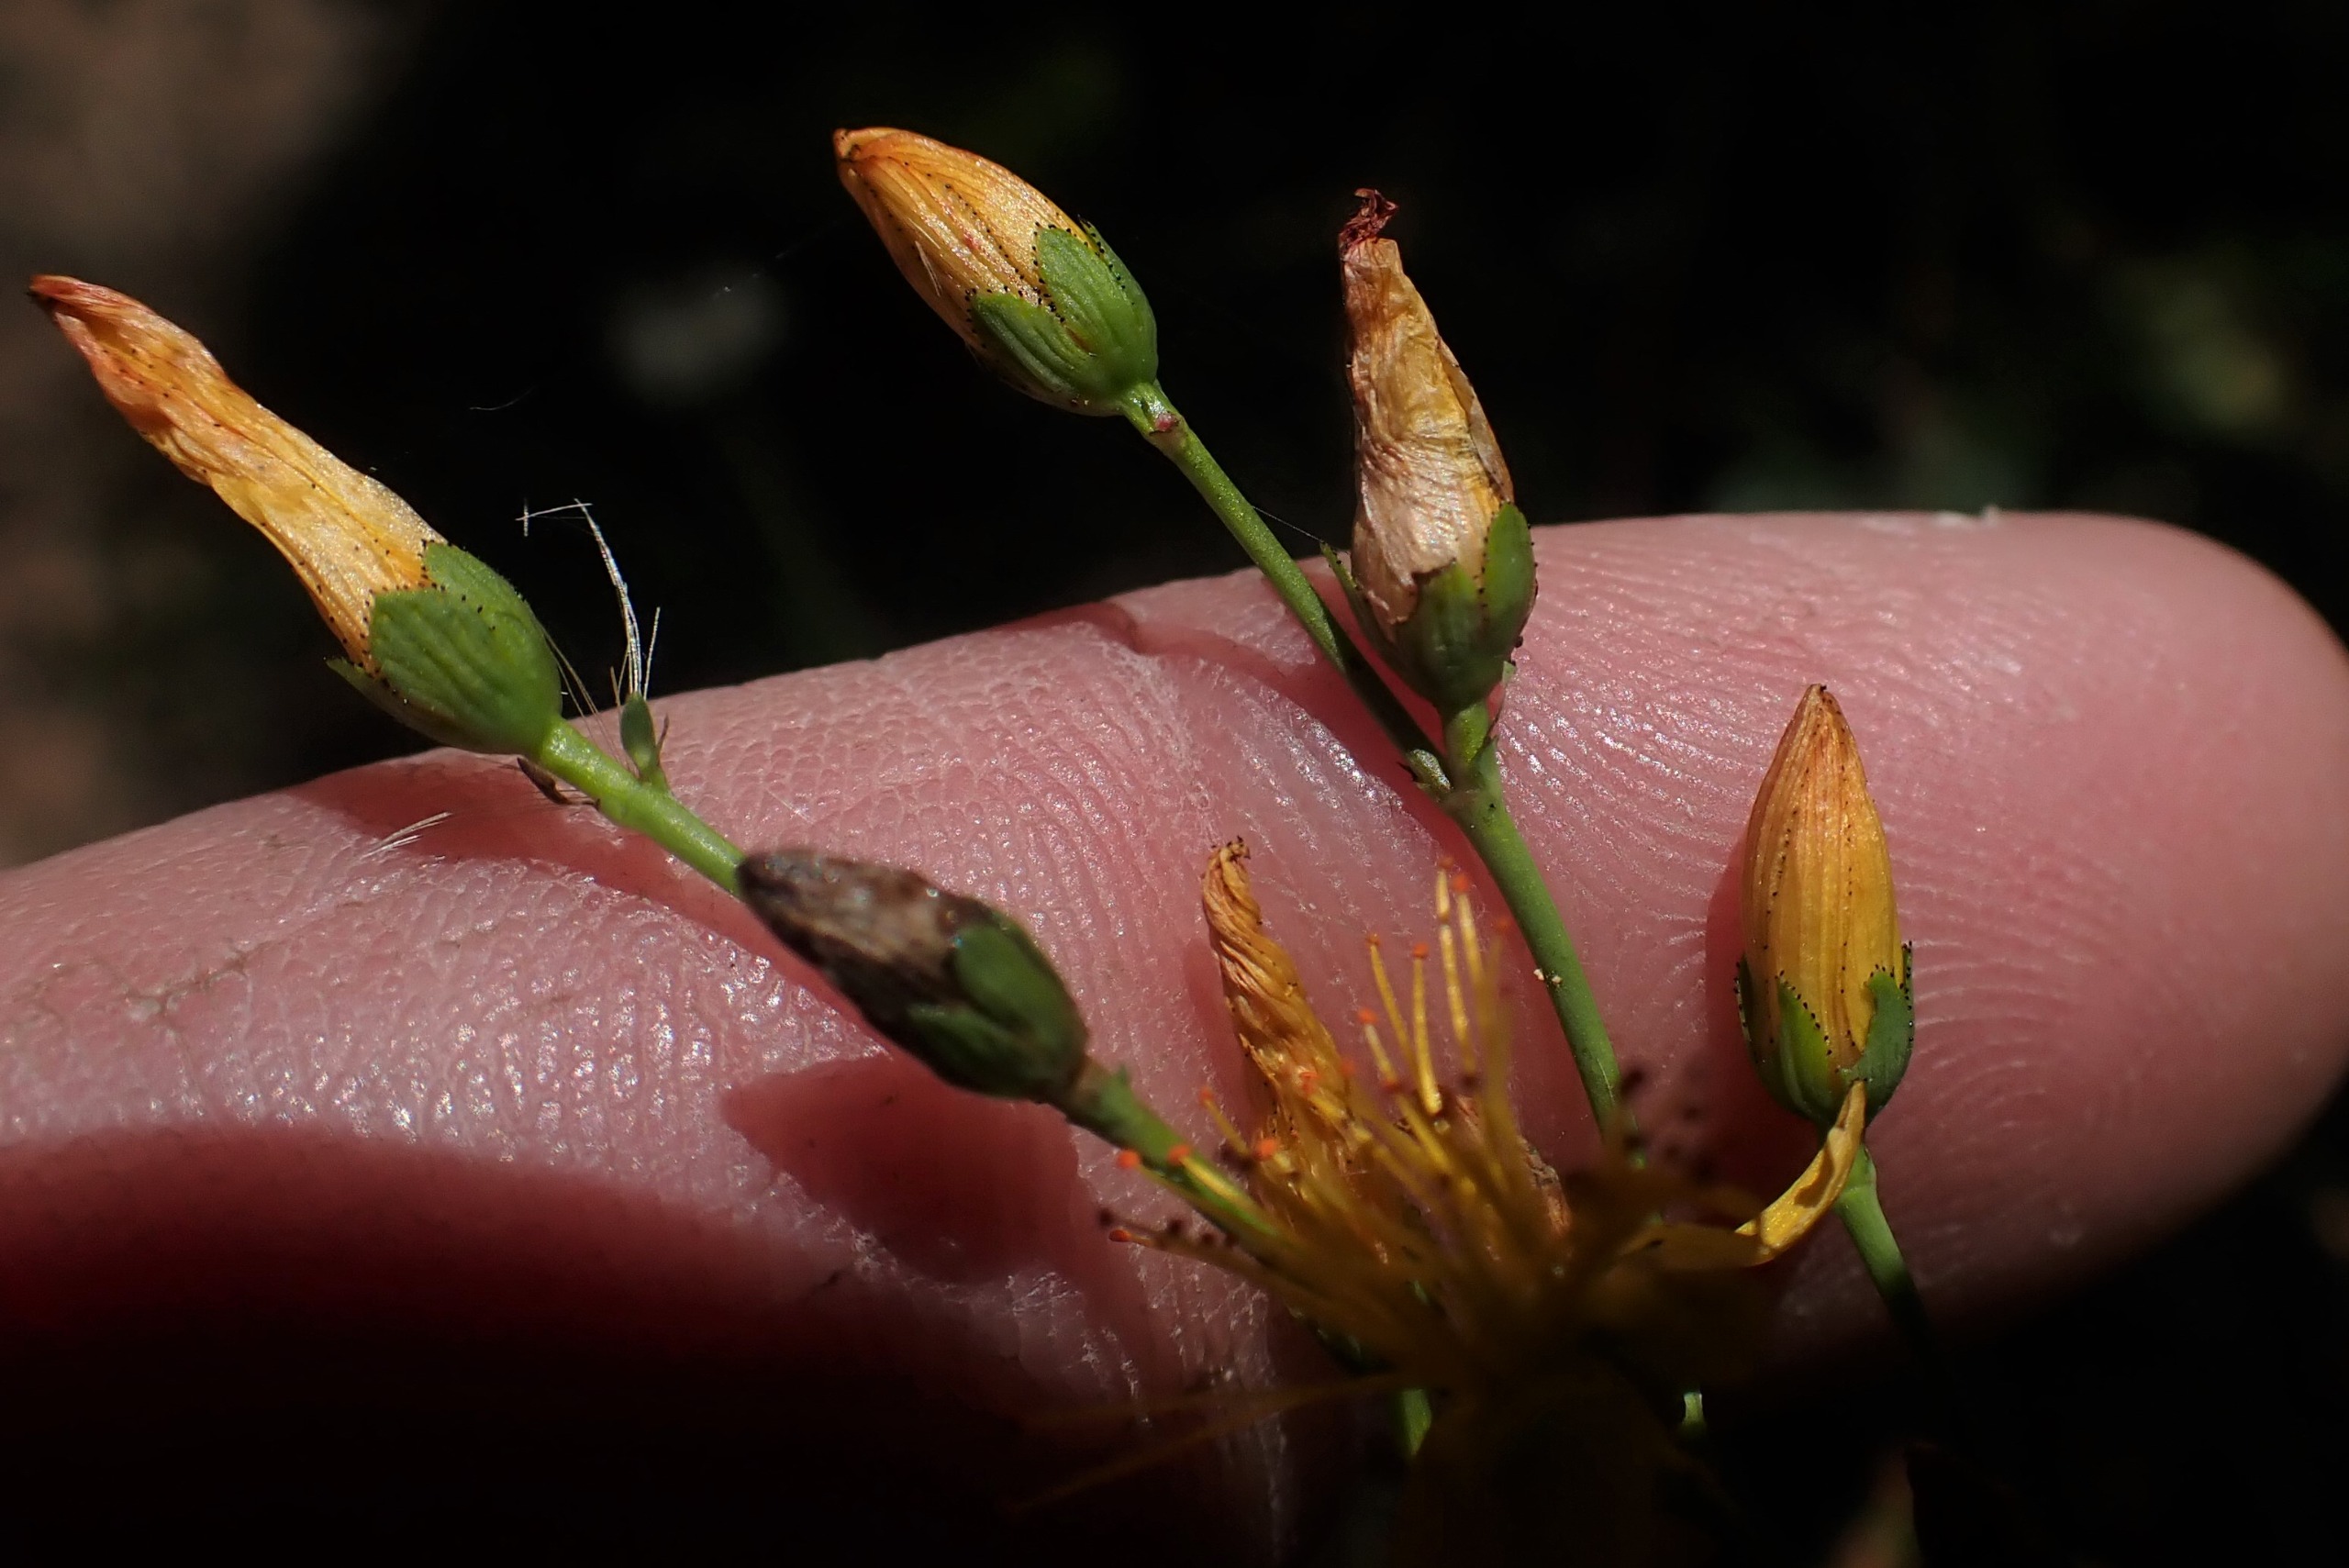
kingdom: Plantae
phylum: Tracheophyta
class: Magnoliopsida
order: Malpighiales
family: Hypericaceae
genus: Hypericum
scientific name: Hypericum pulchrum
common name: Smuk perikon
